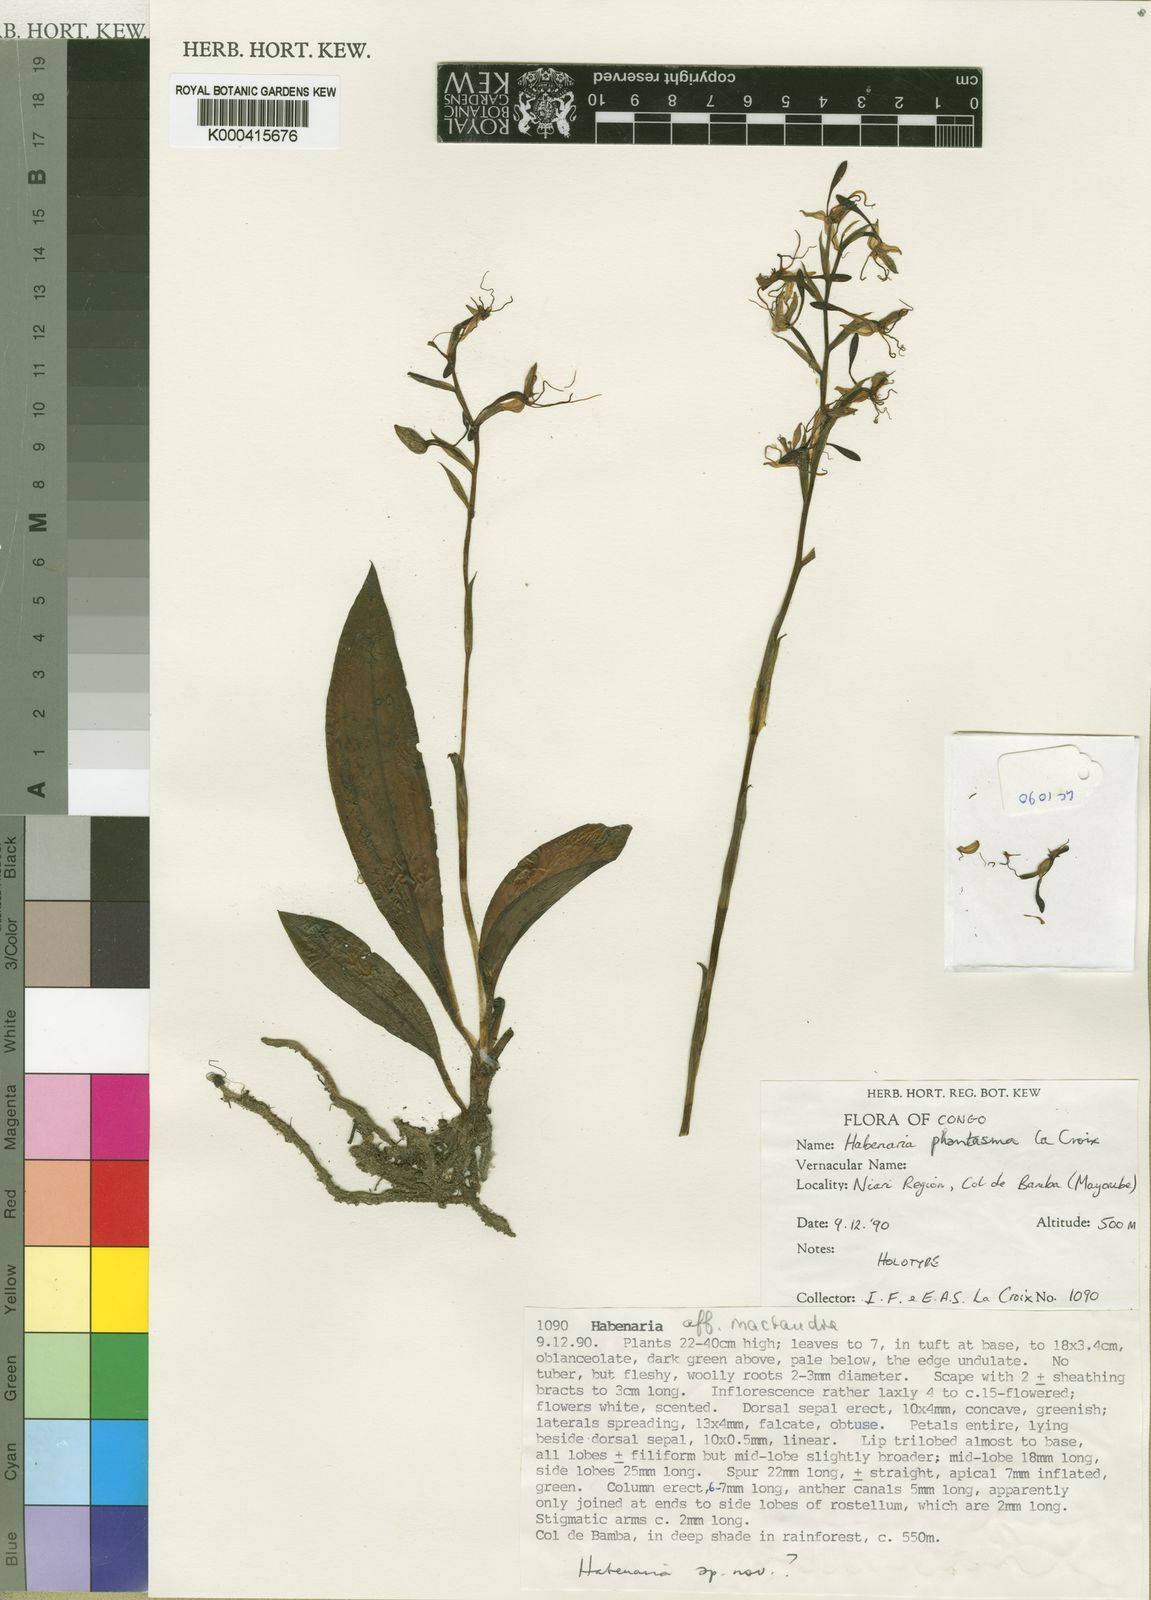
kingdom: Plantae
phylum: Tracheophyta
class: Liliopsida
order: Asparagales
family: Orchidaceae
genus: Habenaria
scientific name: Habenaria phantasma
